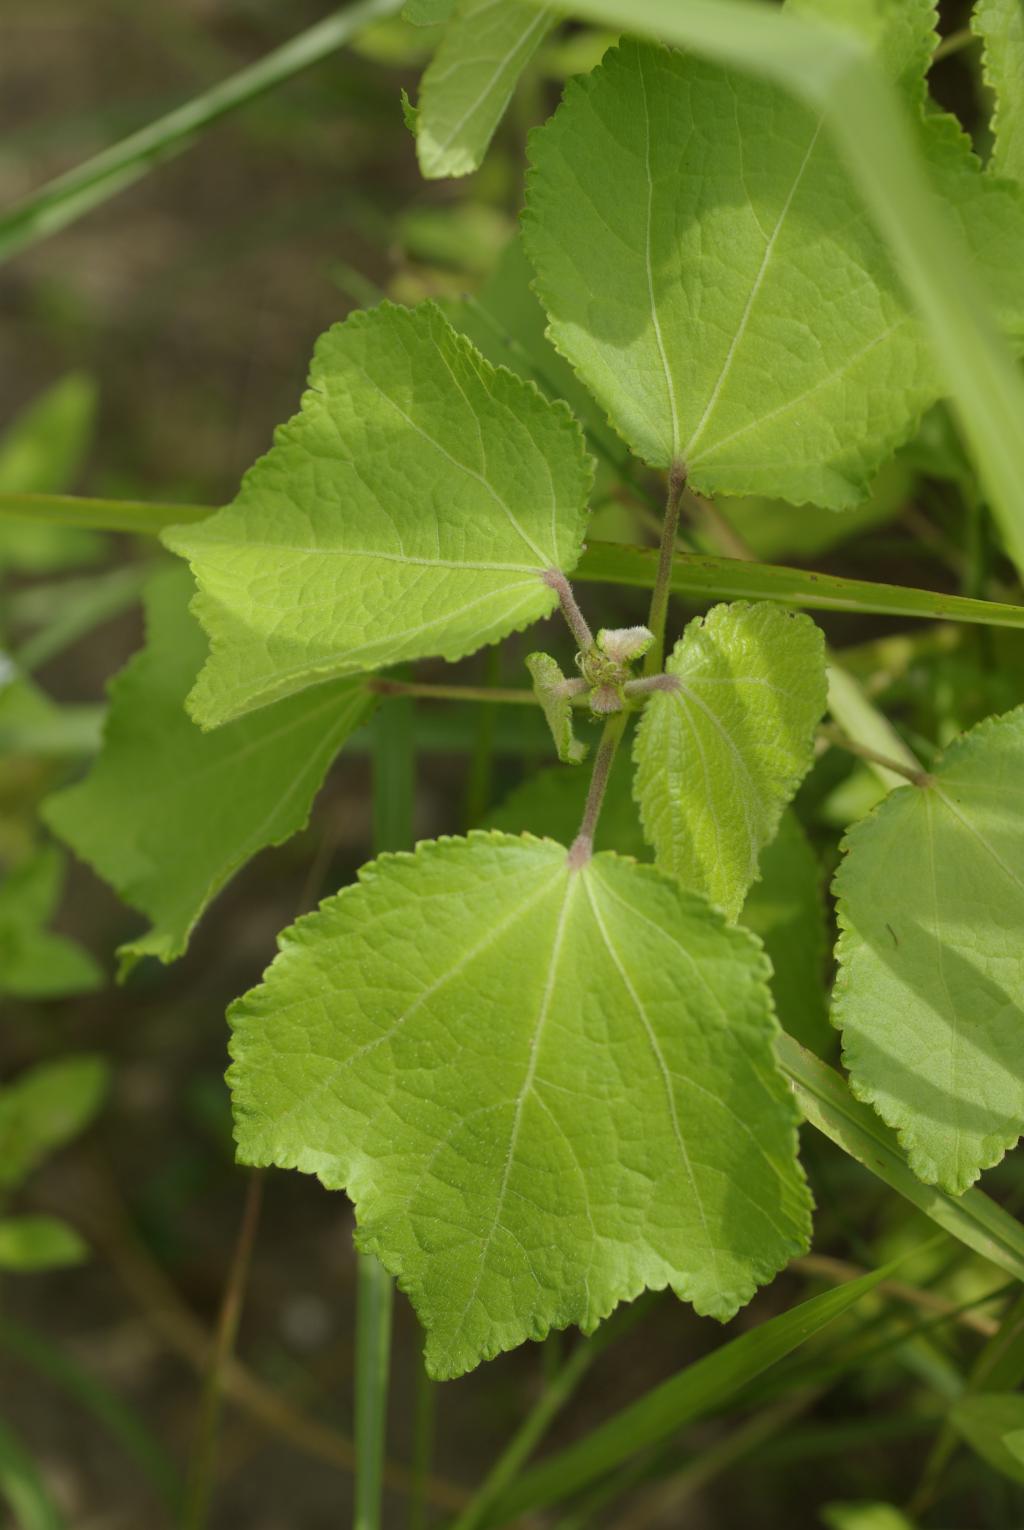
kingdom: Plantae
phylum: Tracheophyta
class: Magnoliopsida
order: Malvales
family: Malvaceae
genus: Triumfetta
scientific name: Triumfetta rhomboidea
